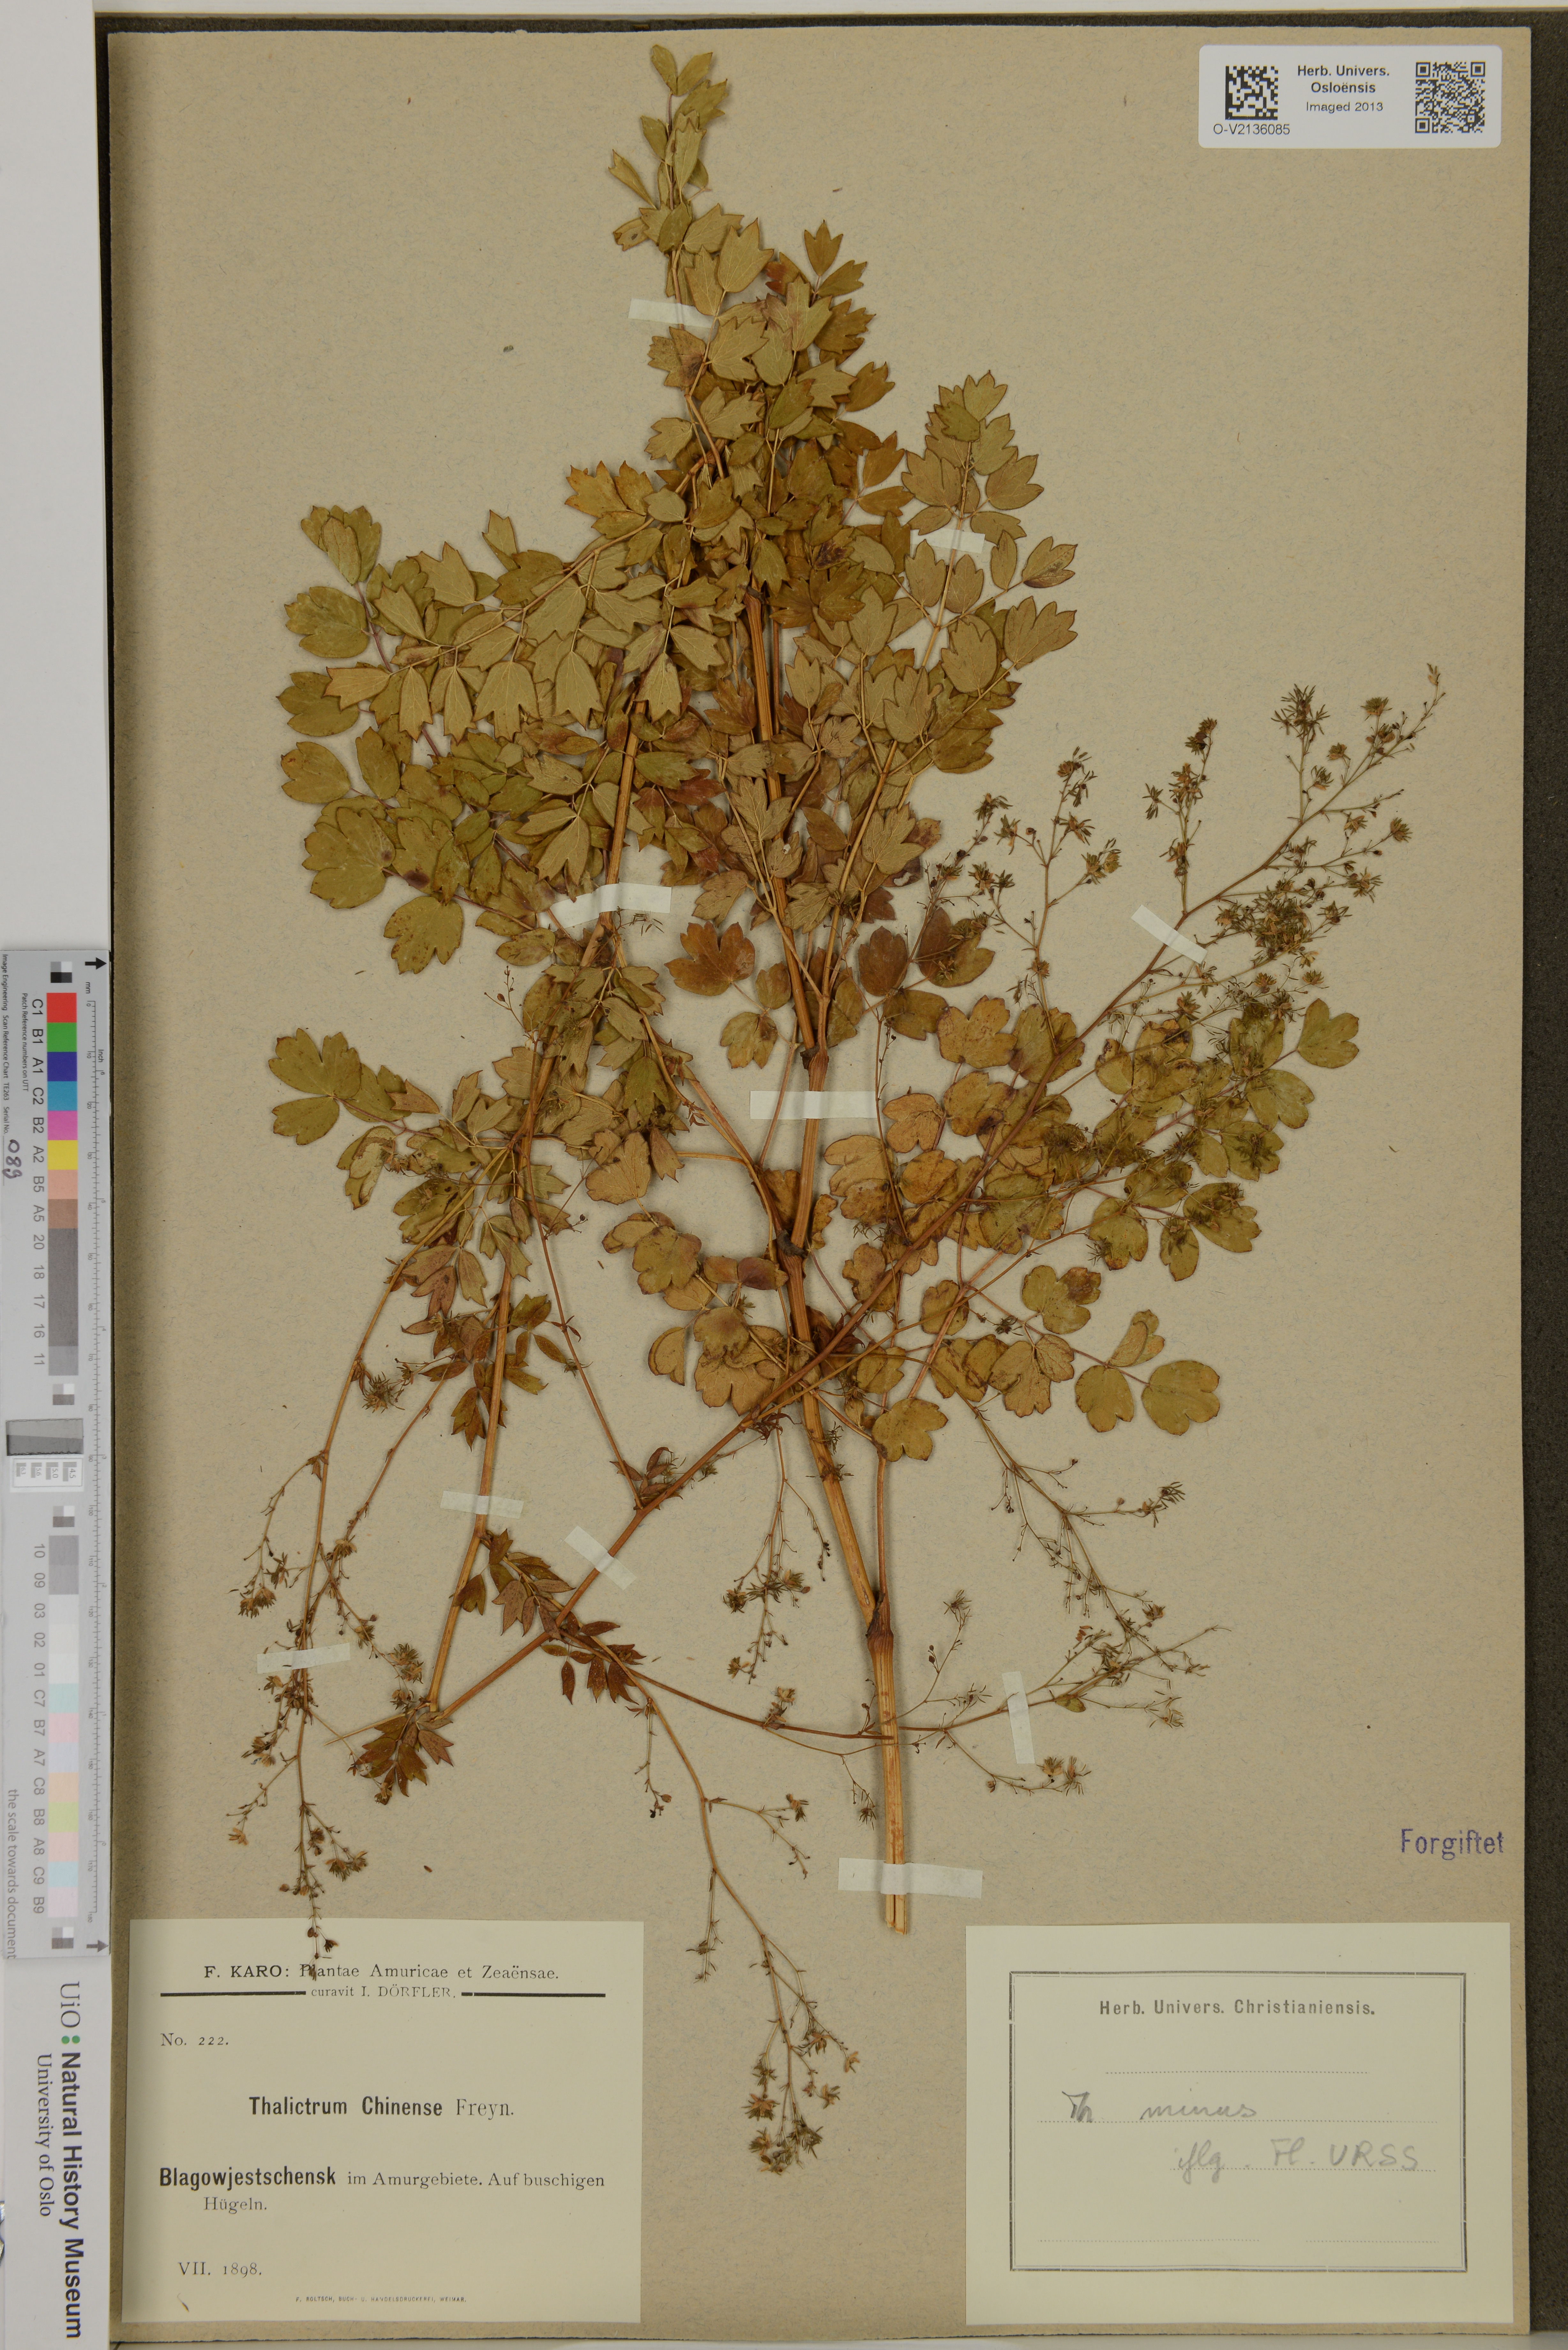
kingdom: Plantae
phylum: Tracheophyta
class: Magnoliopsida
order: Ranunculales
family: Ranunculaceae
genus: Thalictrum
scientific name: Thalictrum chinense
